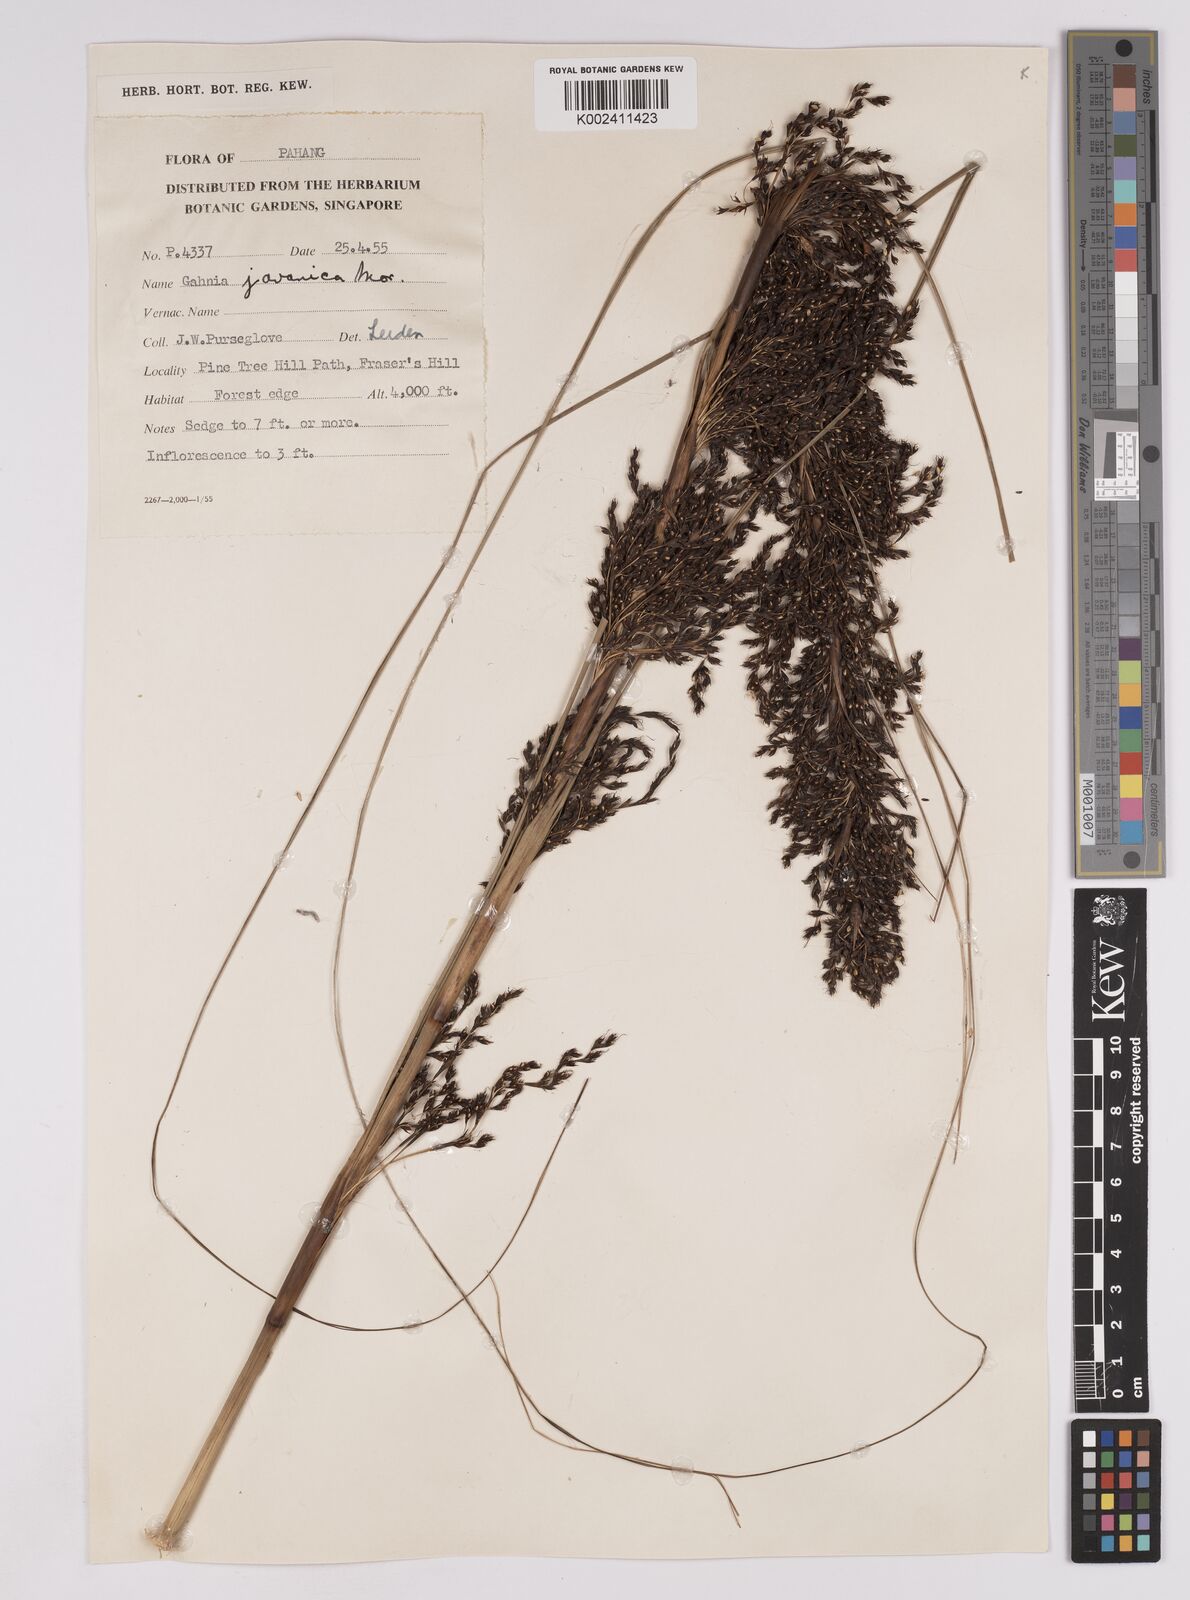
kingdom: Plantae
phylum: Tracheophyta
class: Liliopsida
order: Poales
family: Cyperaceae
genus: Gahnia
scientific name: Gahnia baniensis
